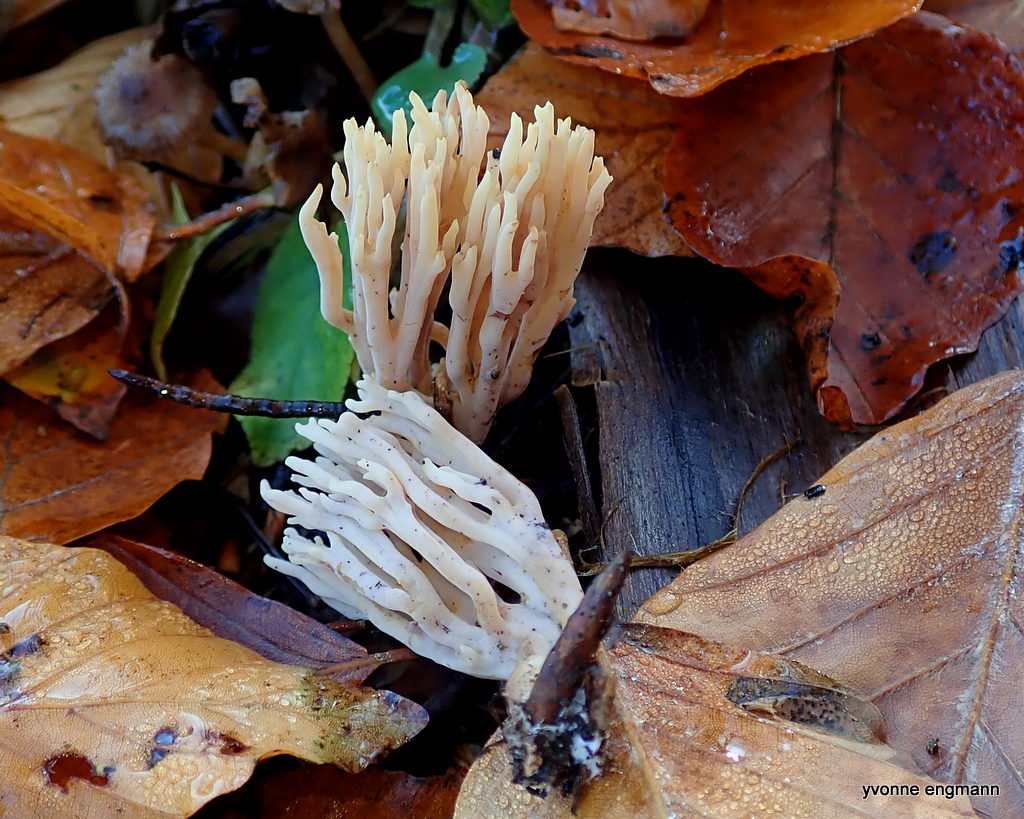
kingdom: Fungi
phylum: Basidiomycota
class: Agaricomycetes
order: Gomphales
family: Gomphaceae
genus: Ramaria
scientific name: Ramaria stricta
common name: rank koralsvamp
